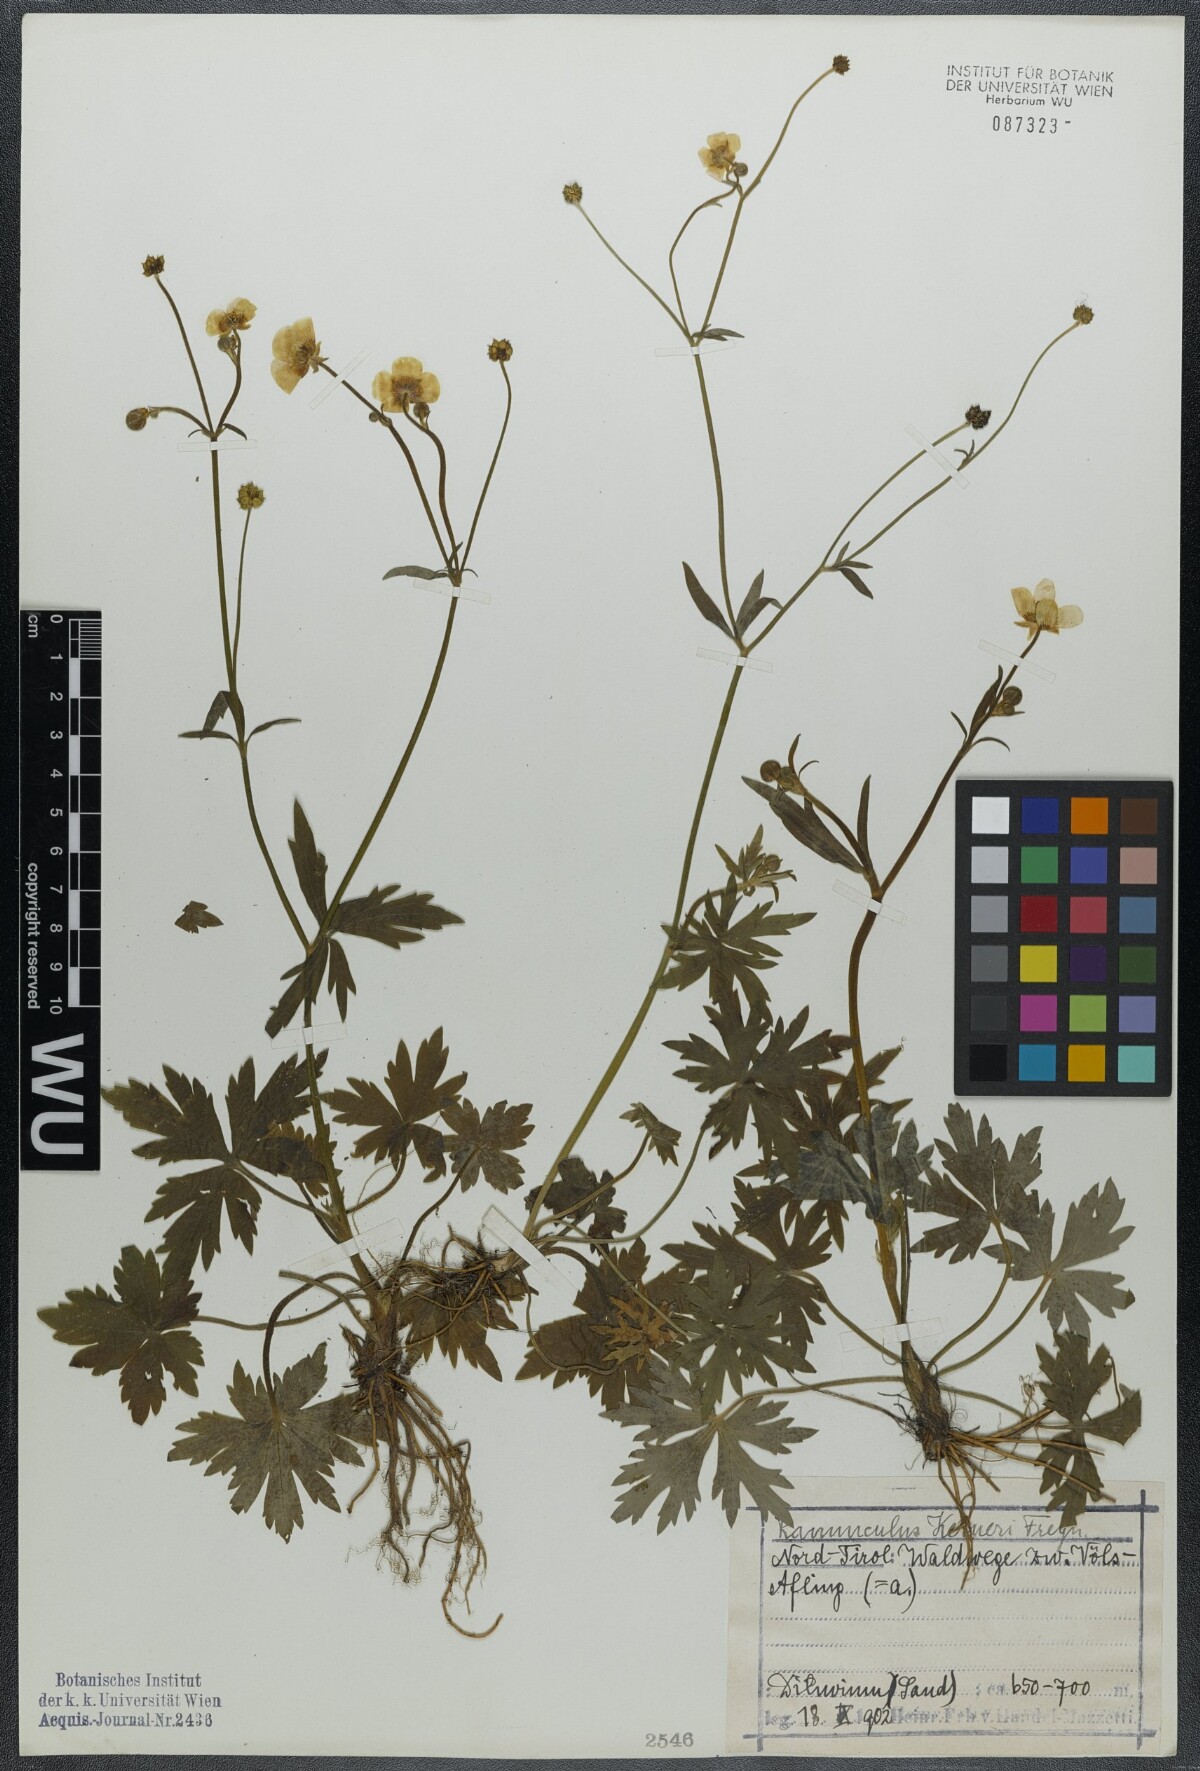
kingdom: Plantae
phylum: Tracheophyta
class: Magnoliopsida
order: Ranunculales
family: Ranunculaceae
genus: Ranunculus
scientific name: Ranunculus acris
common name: Meadow buttercup
